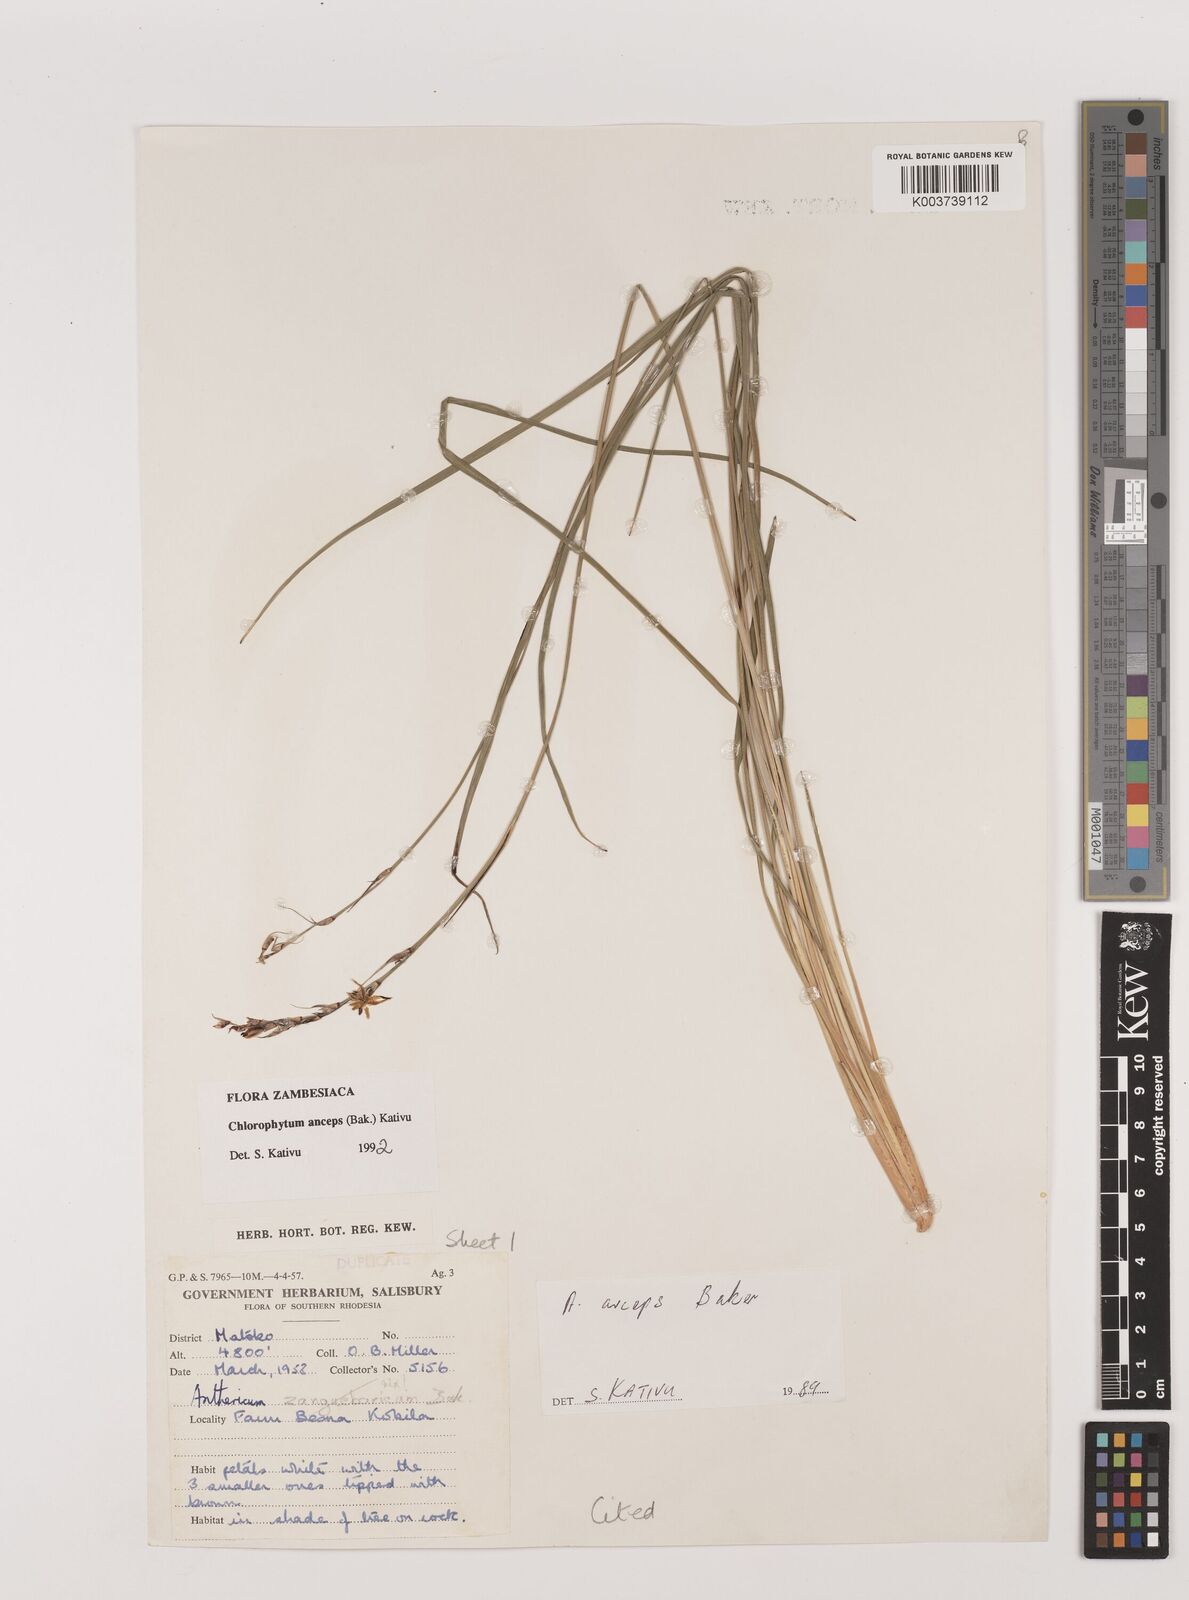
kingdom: Plantae
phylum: Tracheophyta
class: Liliopsida
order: Asparagales
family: Asparagaceae
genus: Chlorophytum
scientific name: Chlorophytum anceps
